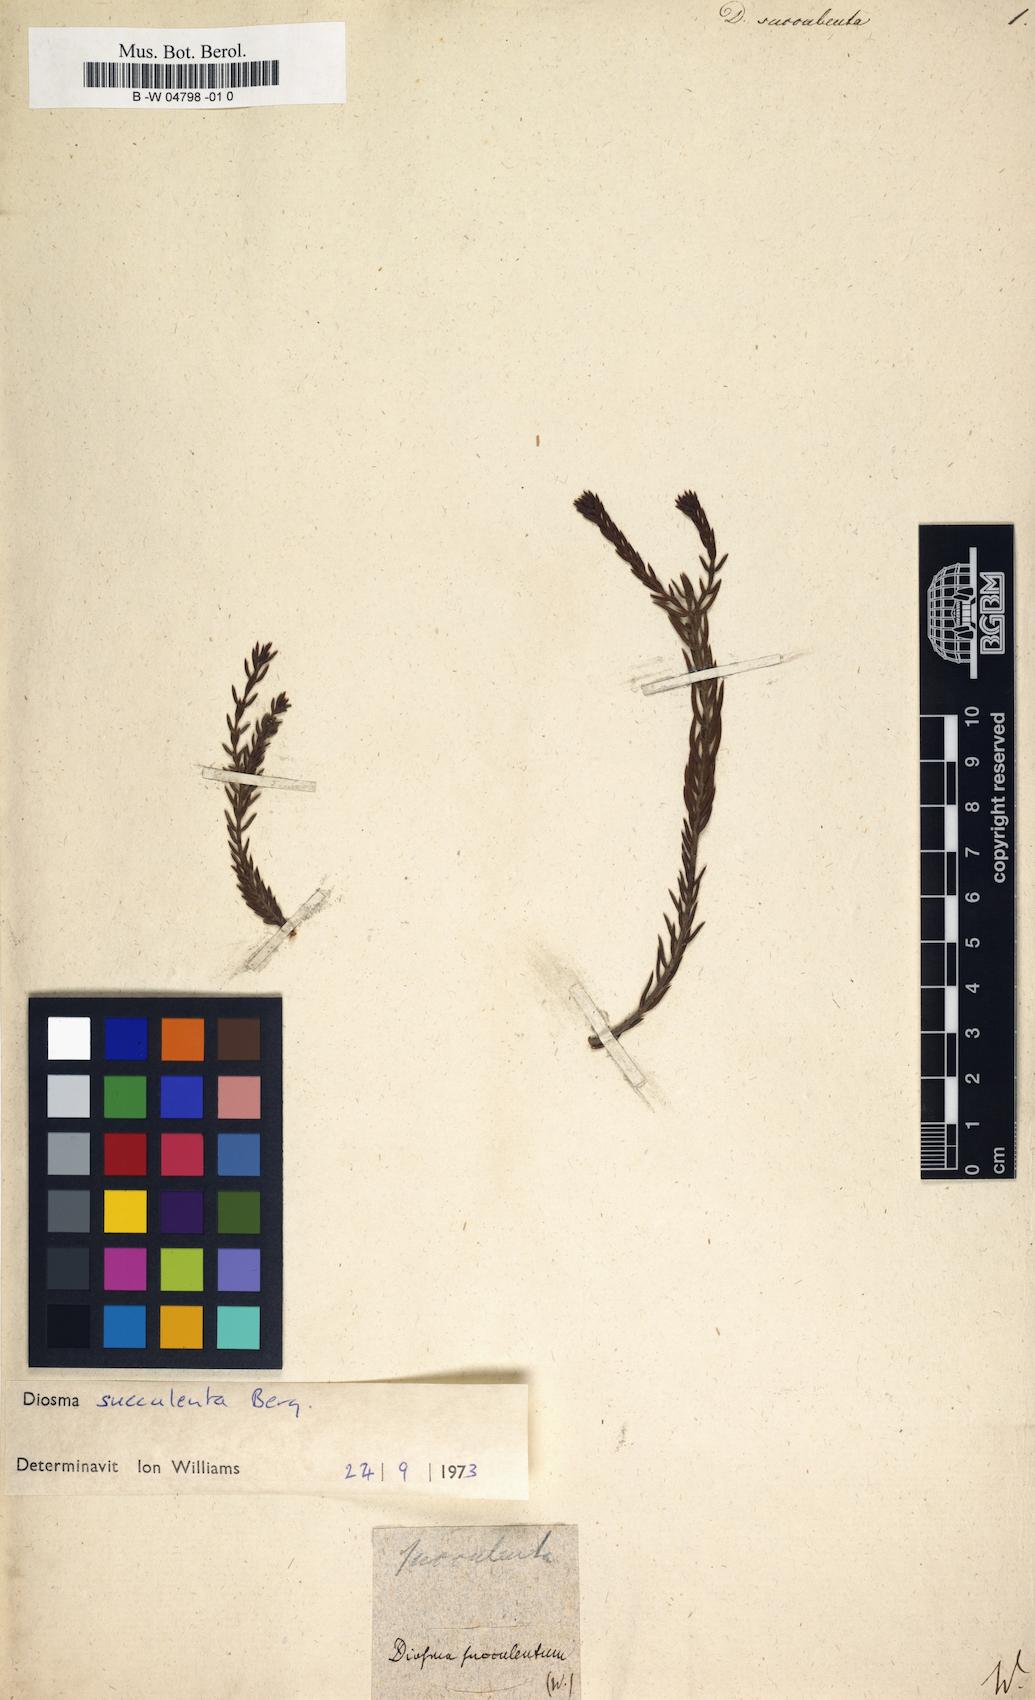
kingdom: Plantae
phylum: Tracheophyta
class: Magnoliopsida
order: Sapindales
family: Rutaceae
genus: Diosma
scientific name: Diosma oppositifolia
